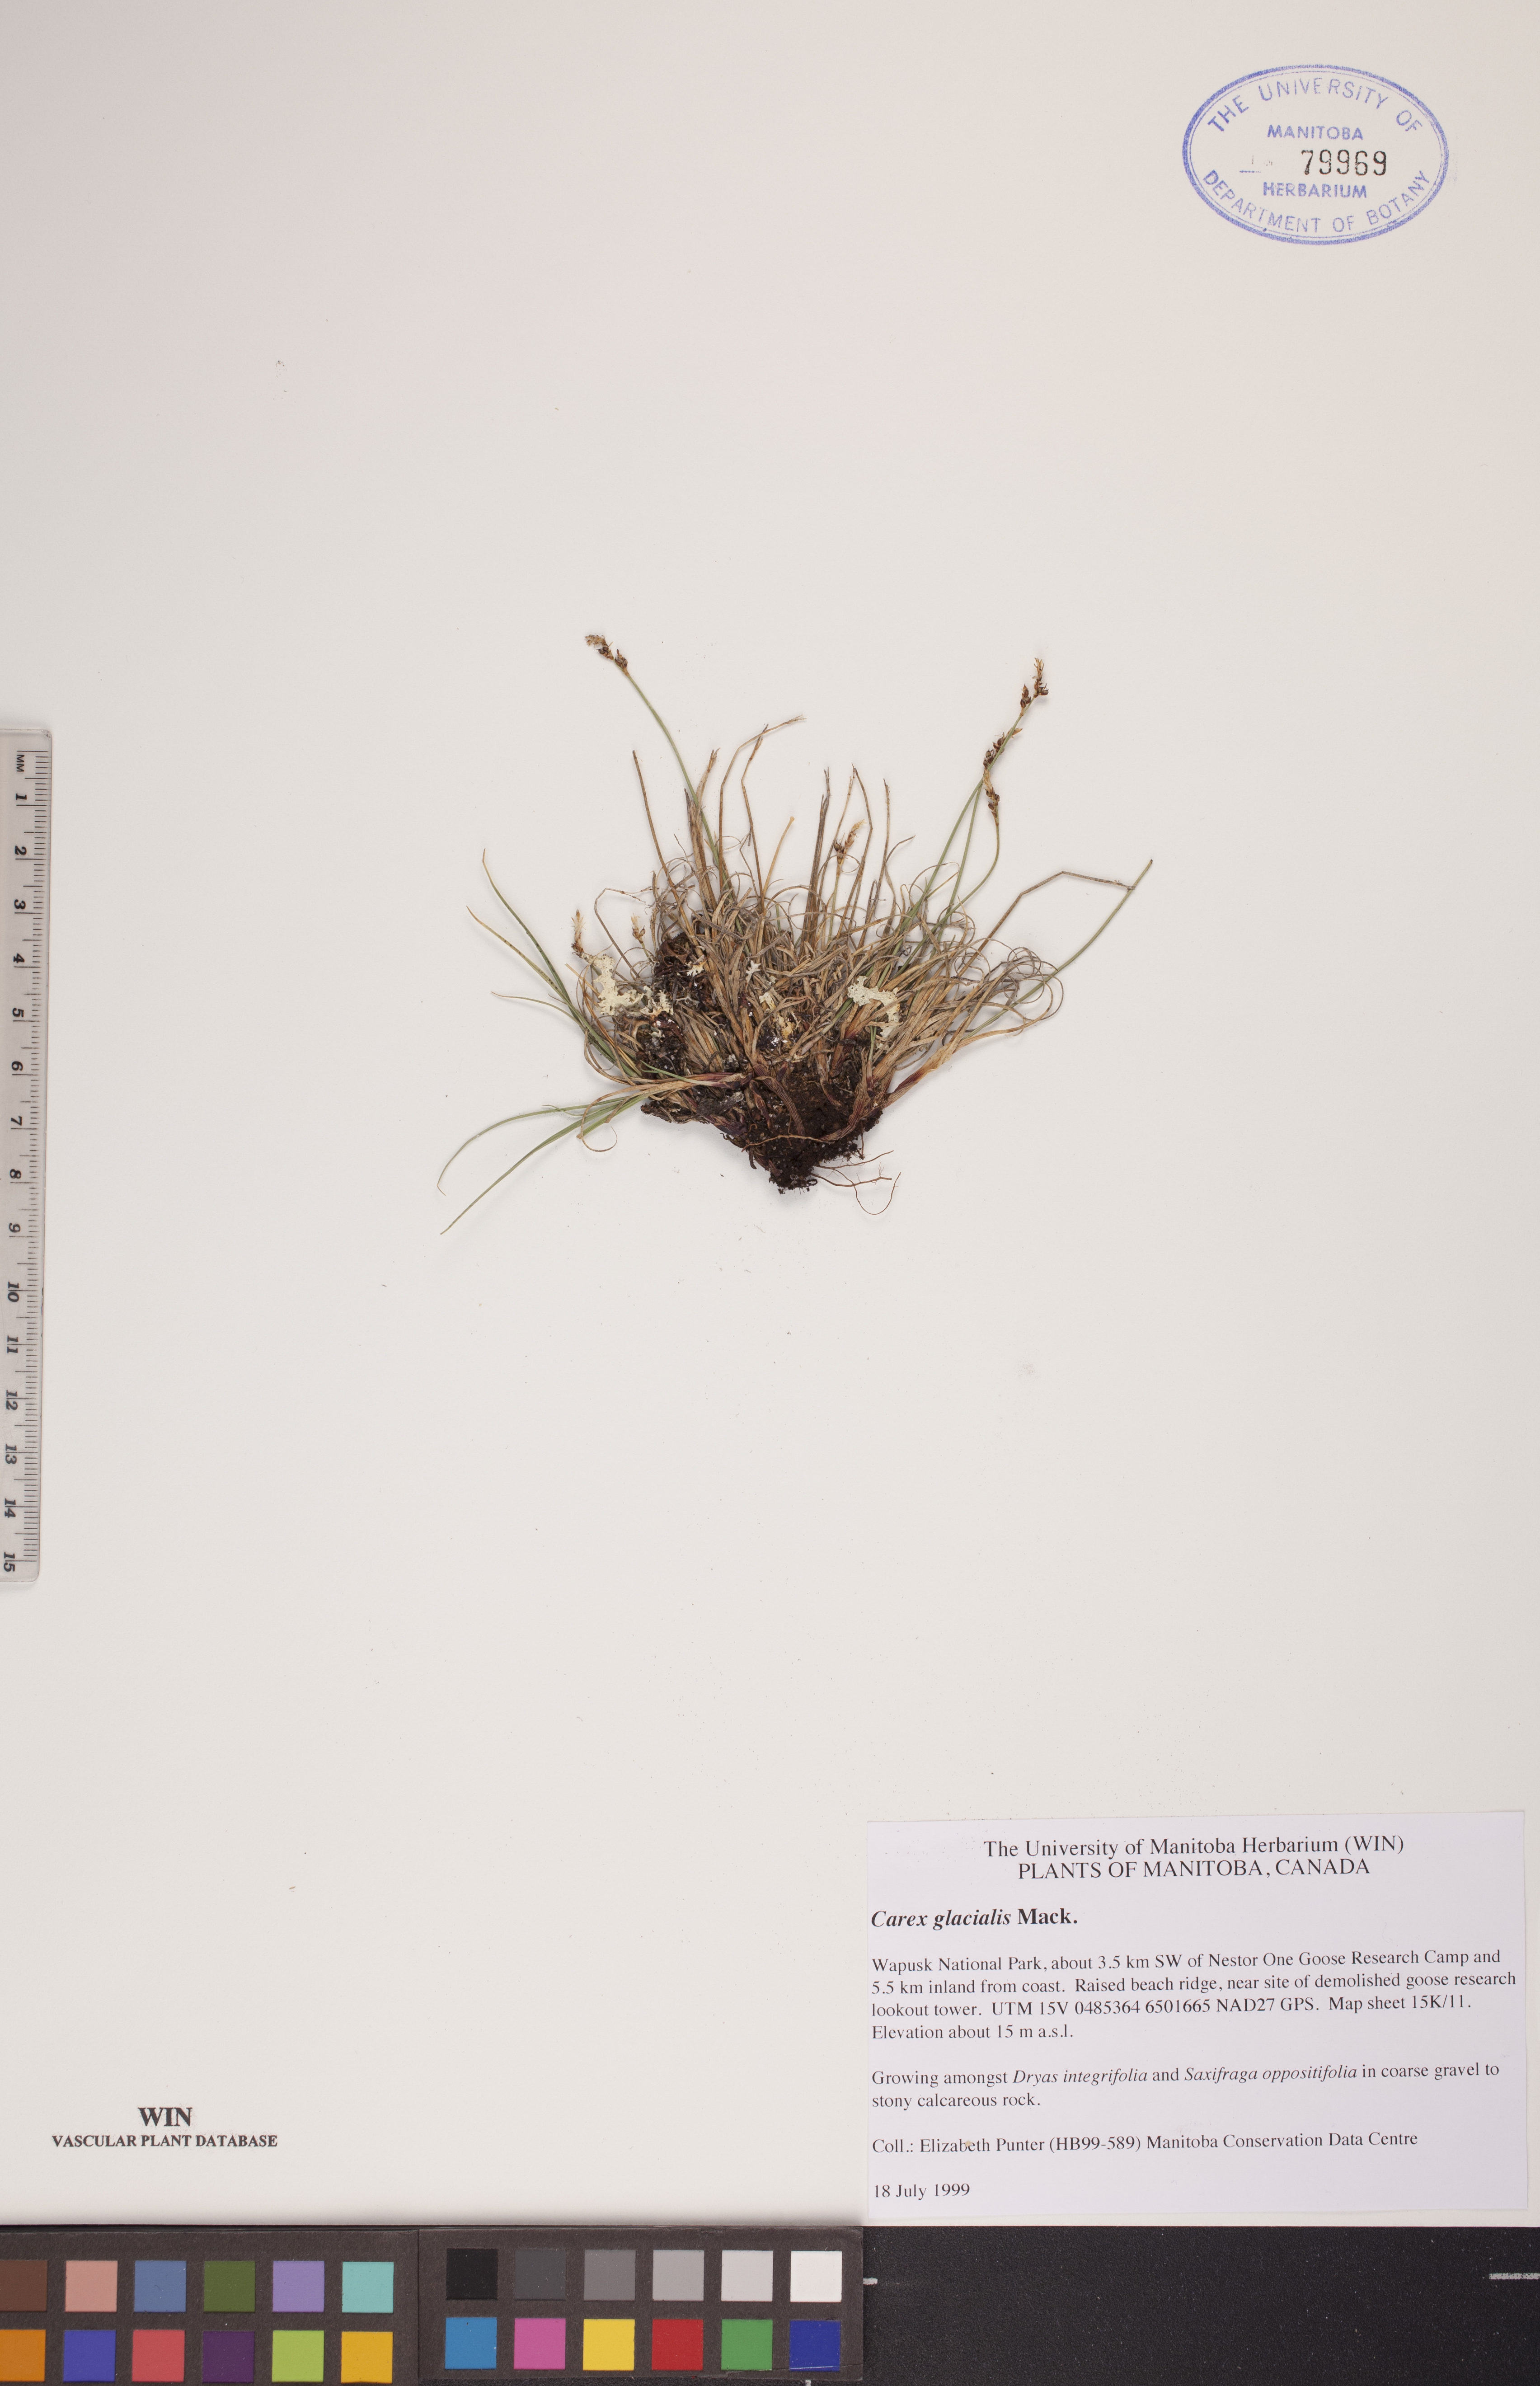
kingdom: Plantae
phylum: Tracheophyta
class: Liliopsida
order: Poales
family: Cyperaceae
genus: Carex
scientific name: Carex glacialis
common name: Newfoundland sedge
